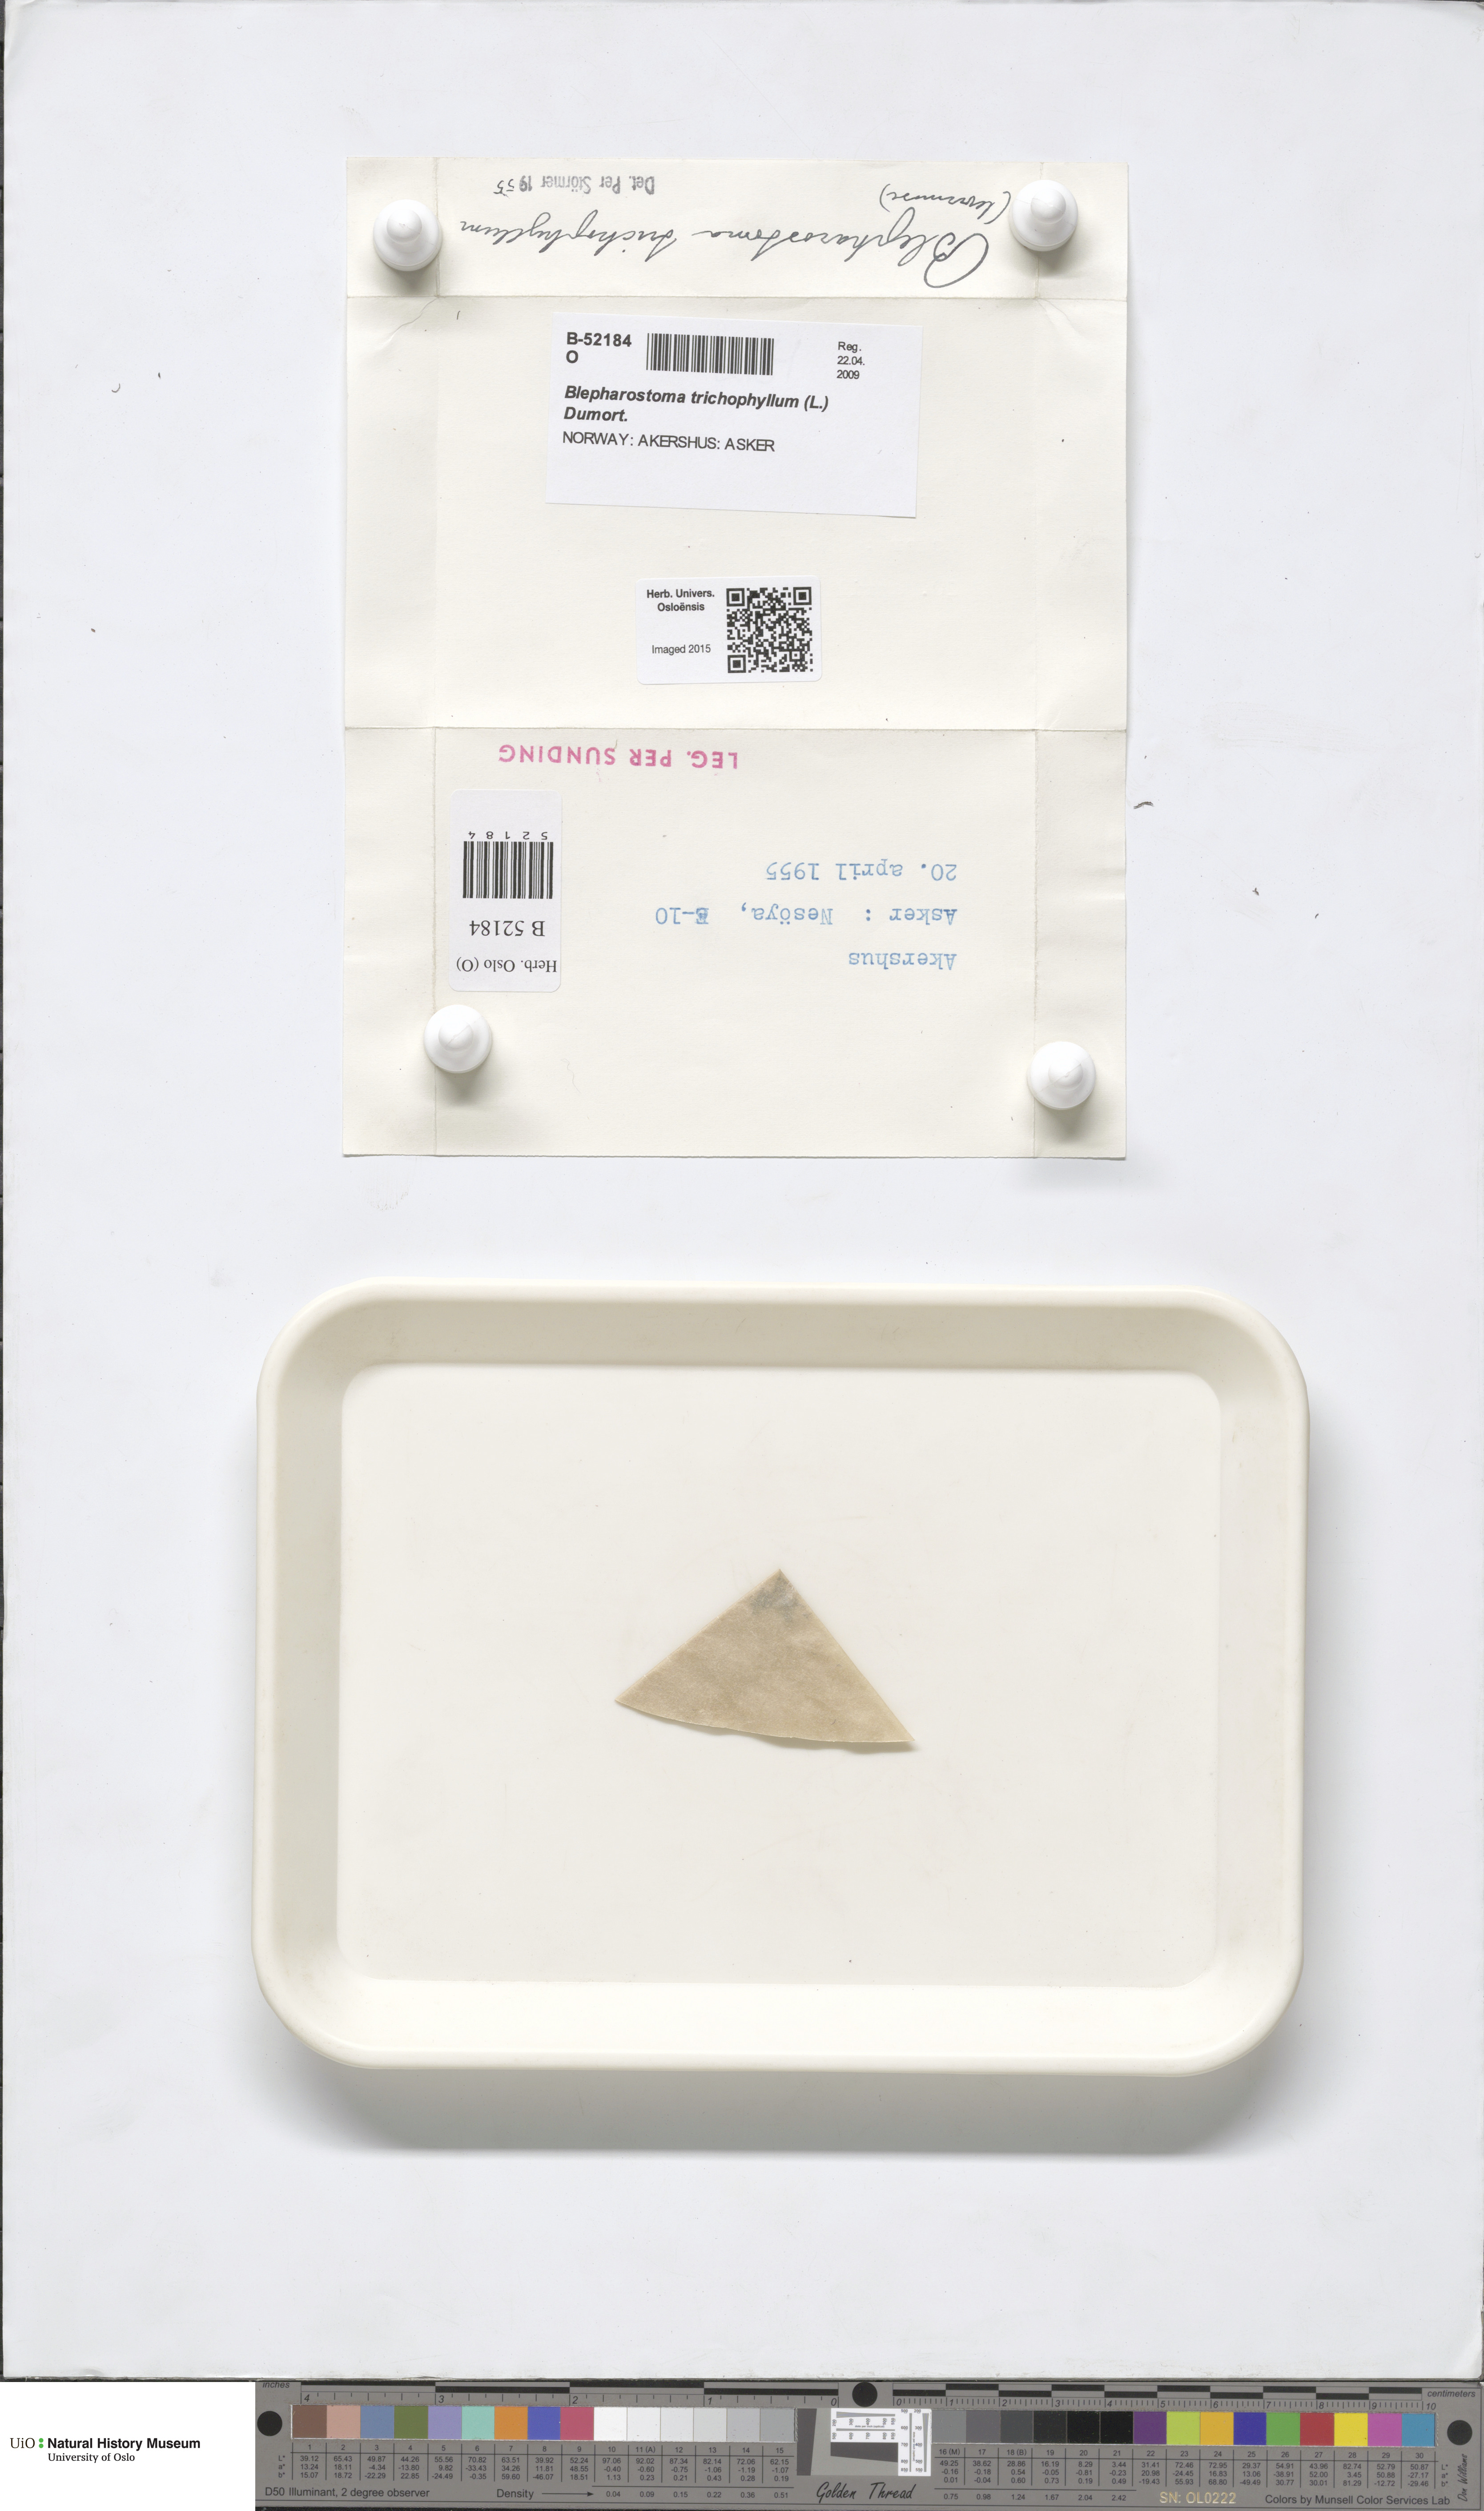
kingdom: Plantae
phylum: Marchantiophyta
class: Jungermanniopsida
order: Jungermanniales
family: Blepharostomataceae
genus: Blepharostoma
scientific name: Blepharostoma trichophyllum
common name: Hairy threadwort
